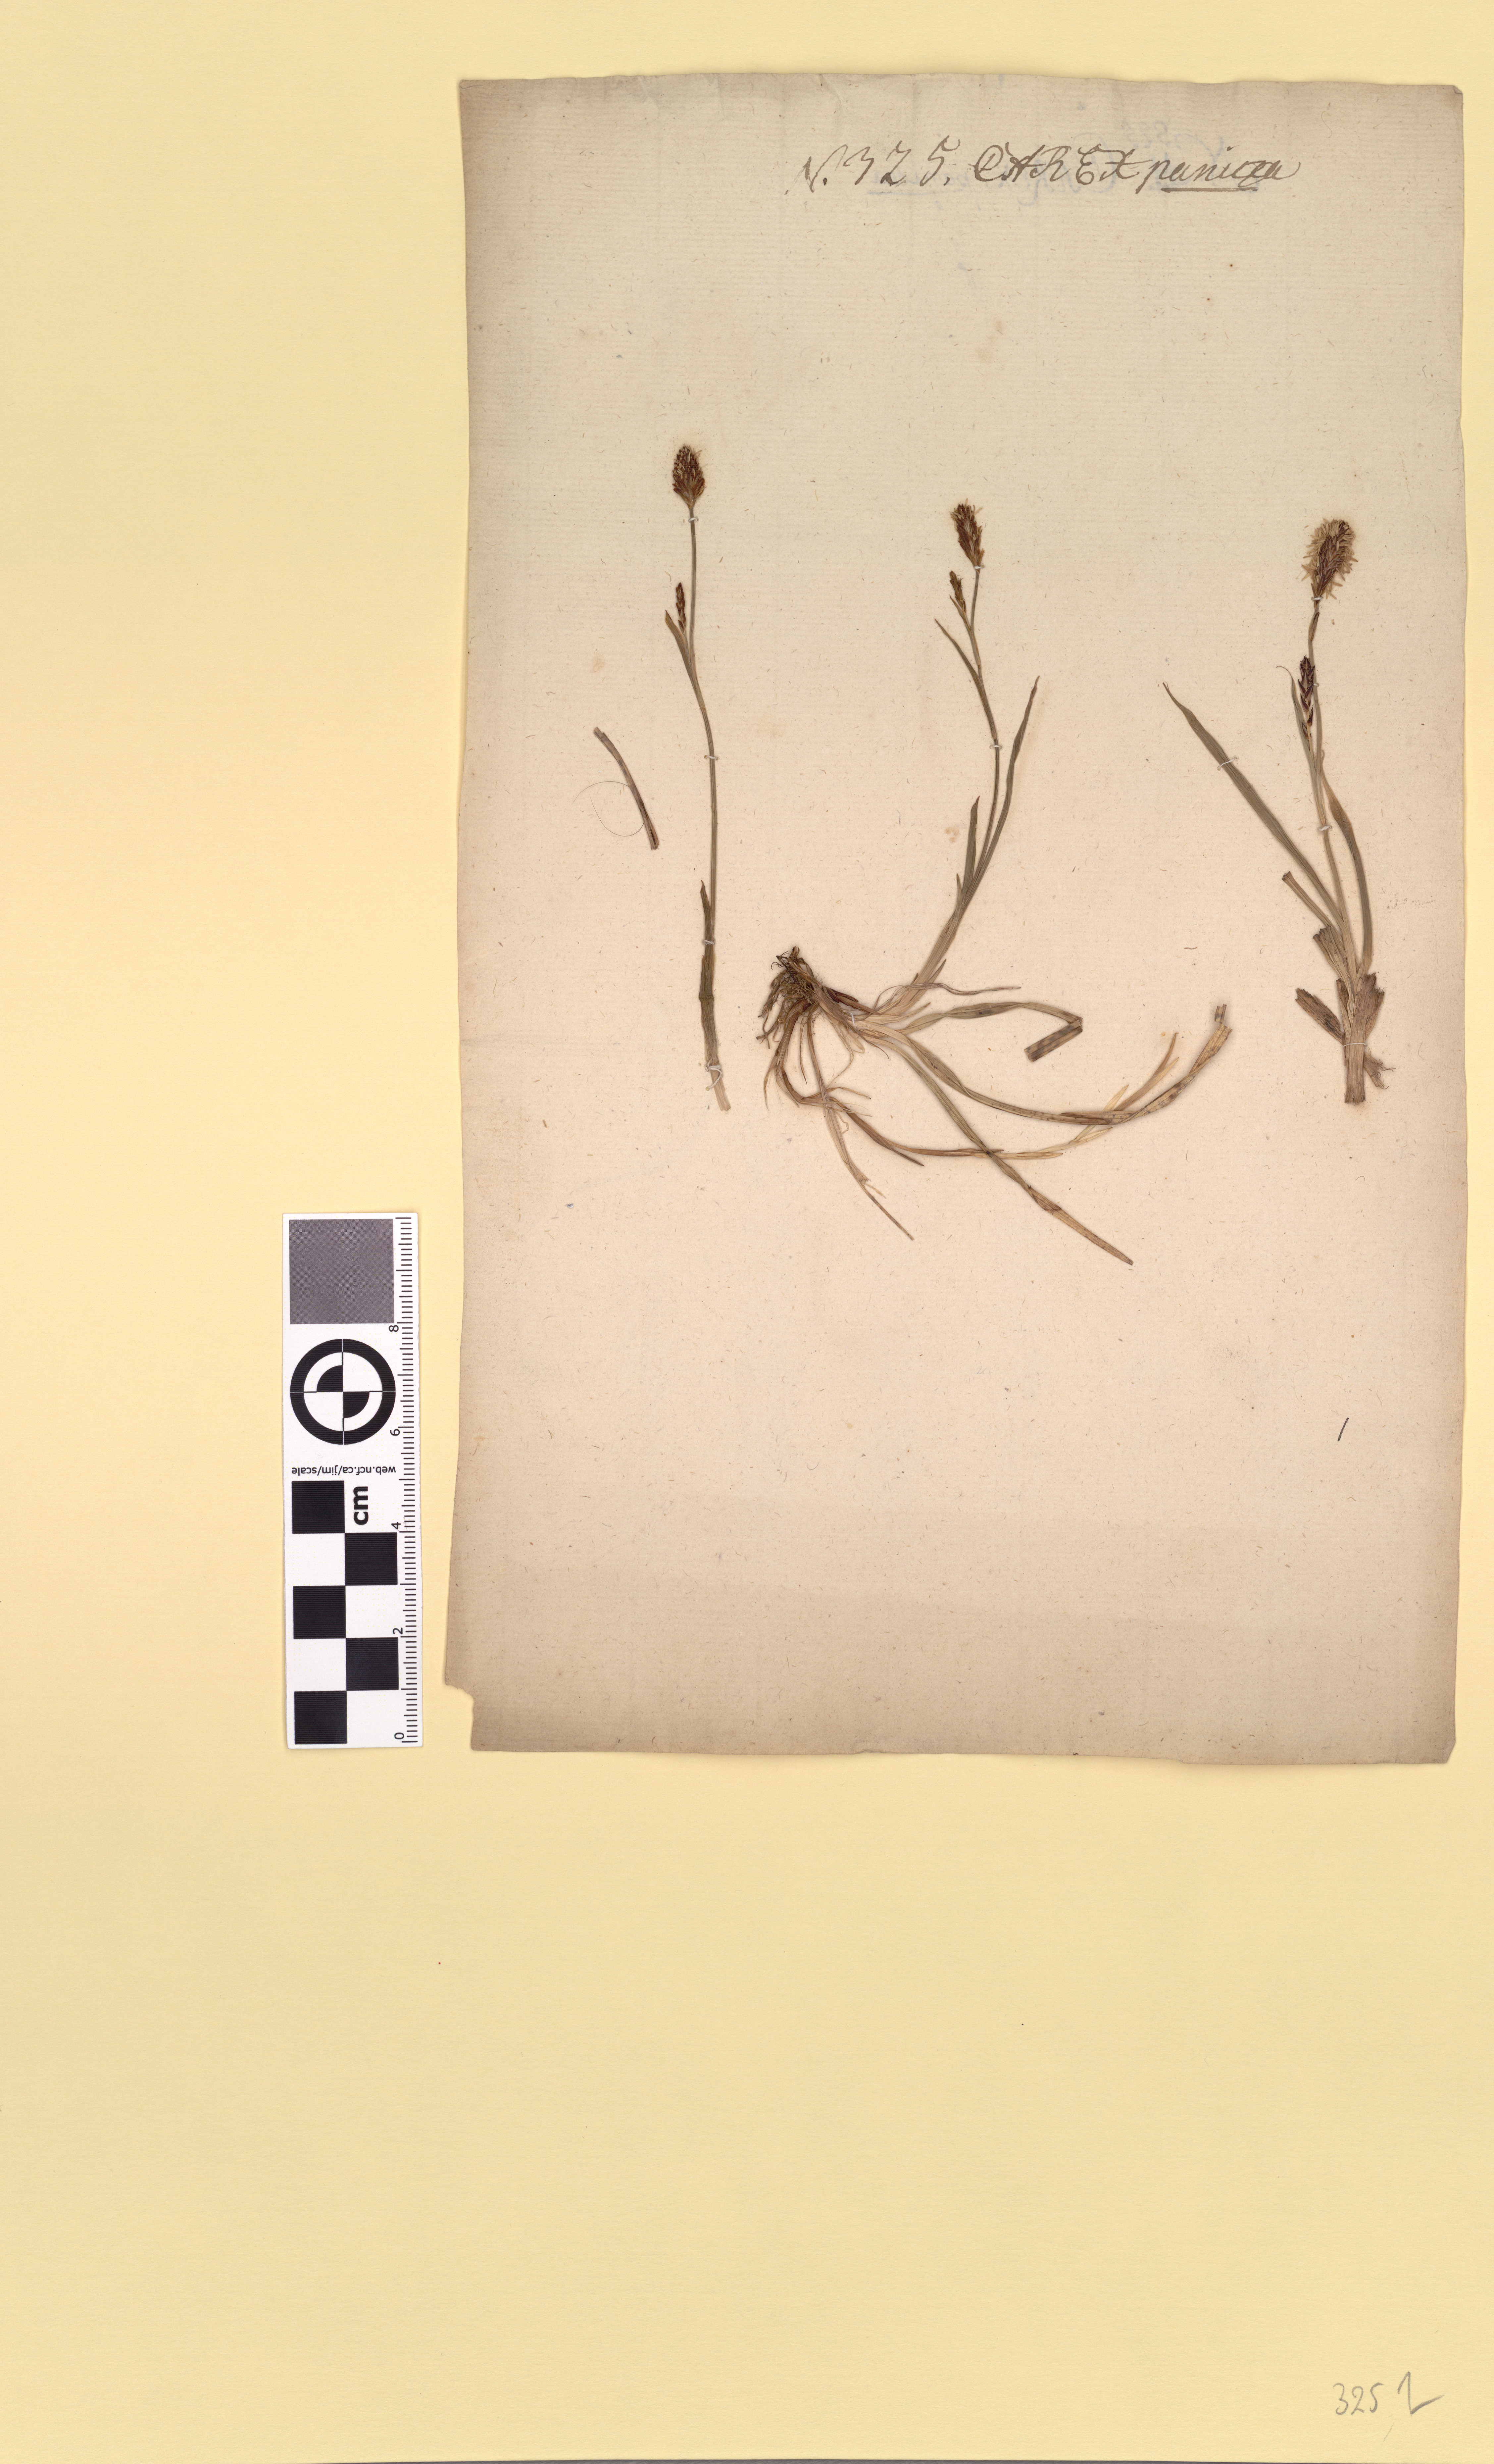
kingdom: Plantae
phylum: Tracheophyta
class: Liliopsida
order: Poales
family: Cyperaceae
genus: Carex
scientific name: Carex panicea
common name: Carnation sedge
